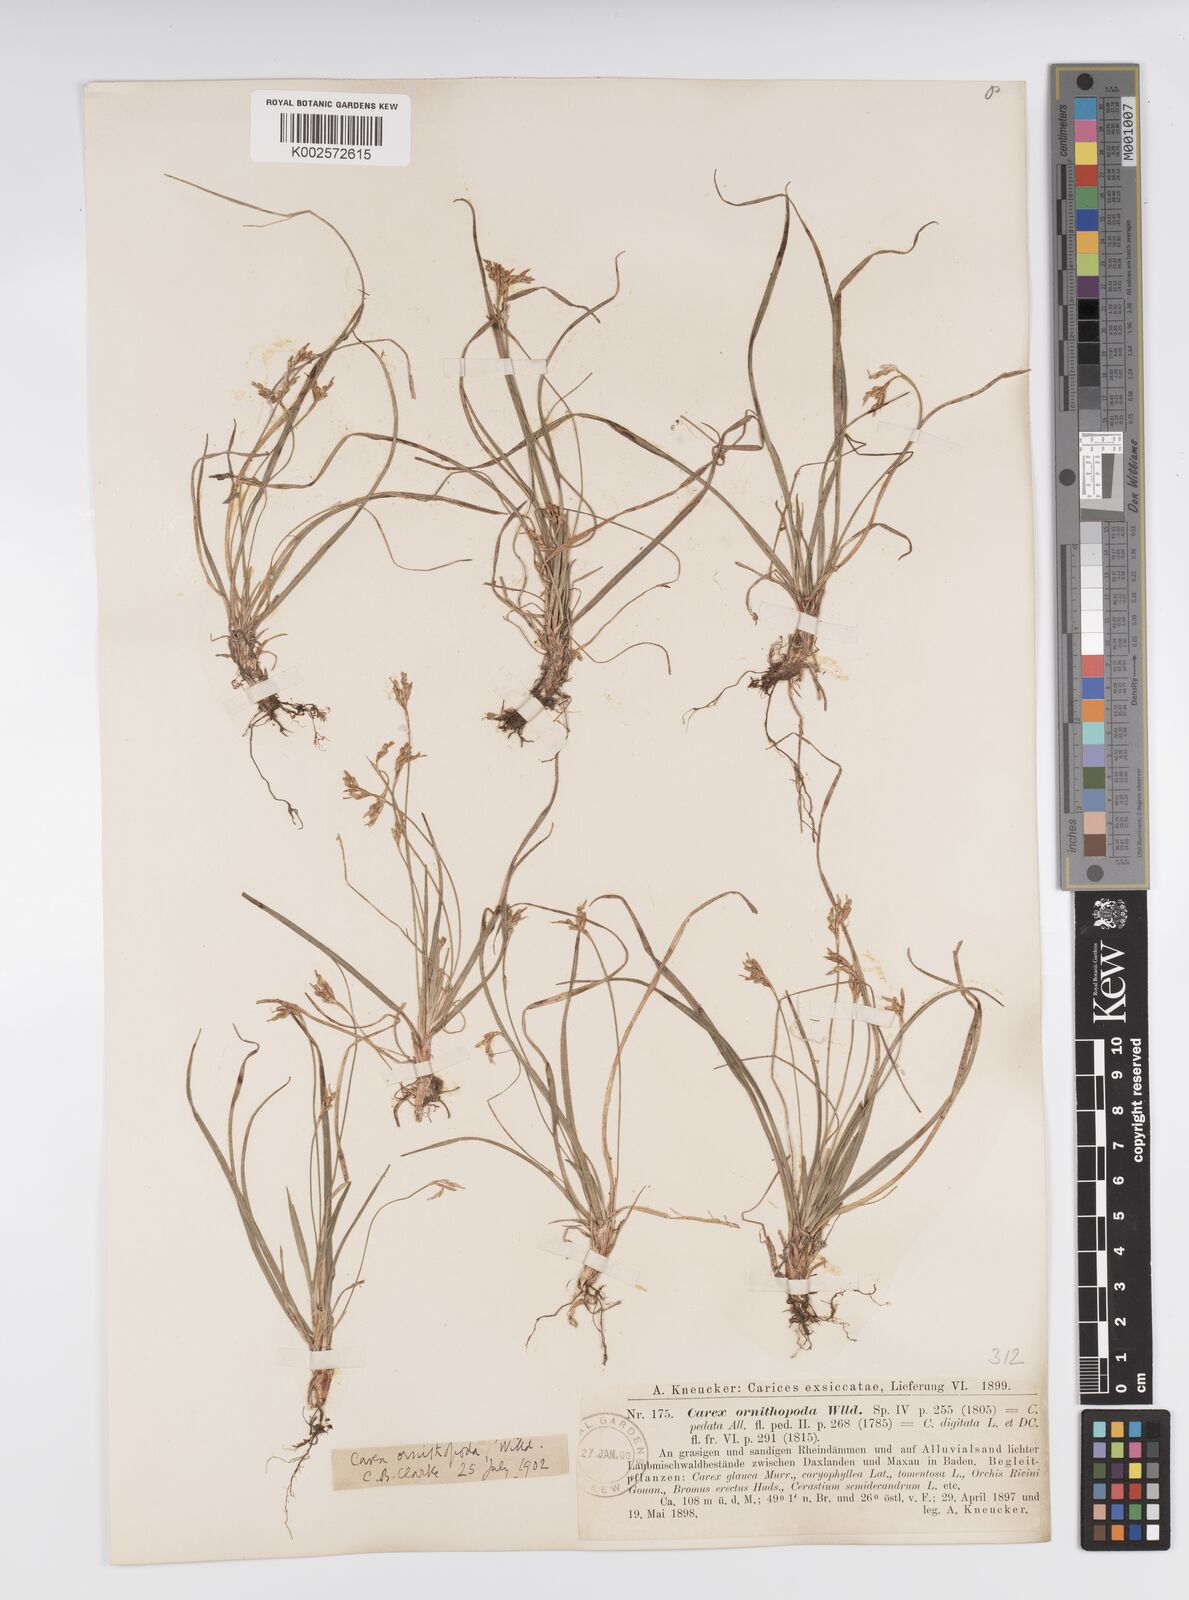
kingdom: Plantae
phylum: Tracheophyta
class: Liliopsida
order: Poales
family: Cyperaceae
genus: Carex
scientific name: Carex ornithopoda
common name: Bird's-foot sedge
